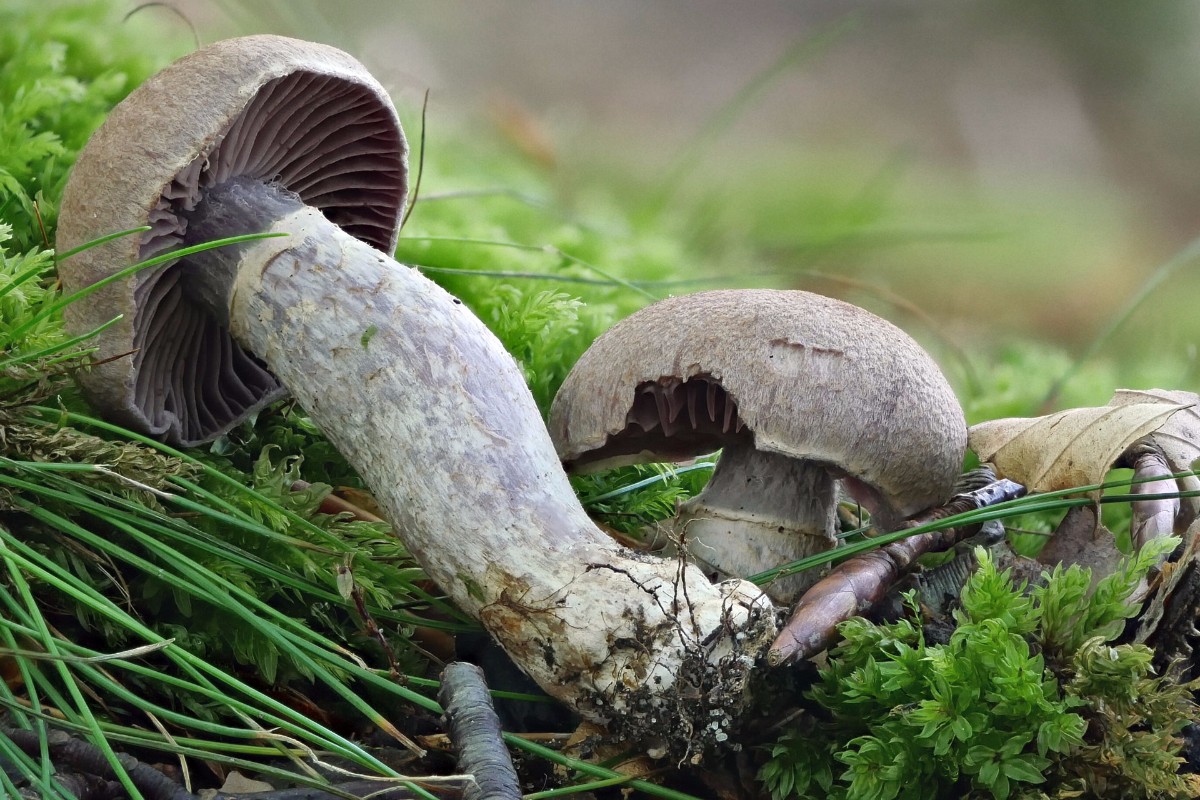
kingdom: Fungi
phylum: Basidiomycota
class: Agaricomycetes
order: Agaricales
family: Cortinariaceae
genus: Cortinarius
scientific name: Cortinarius torvus
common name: champignonagtig slørhat
